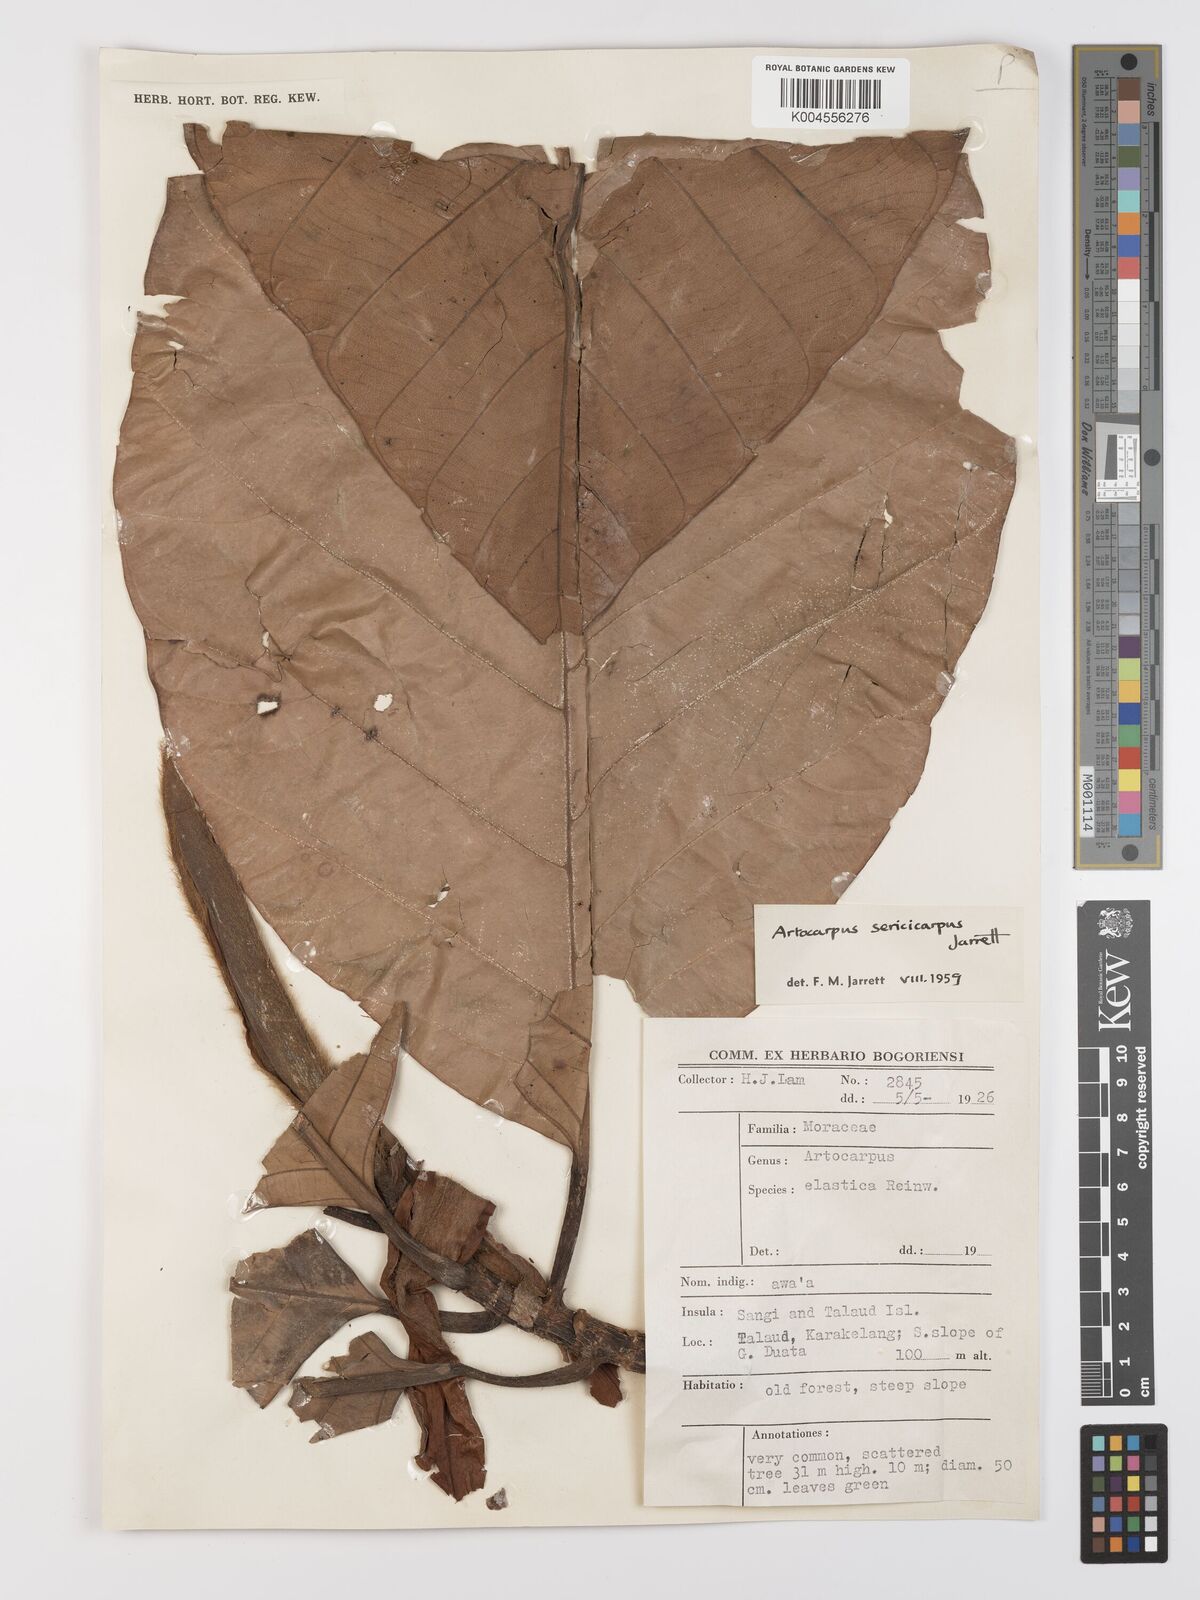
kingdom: Plantae
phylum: Tracheophyta
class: Magnoliopsida
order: Rosales
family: Moraceae
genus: Artocarpus
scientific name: Artocarpus sericicarpus
